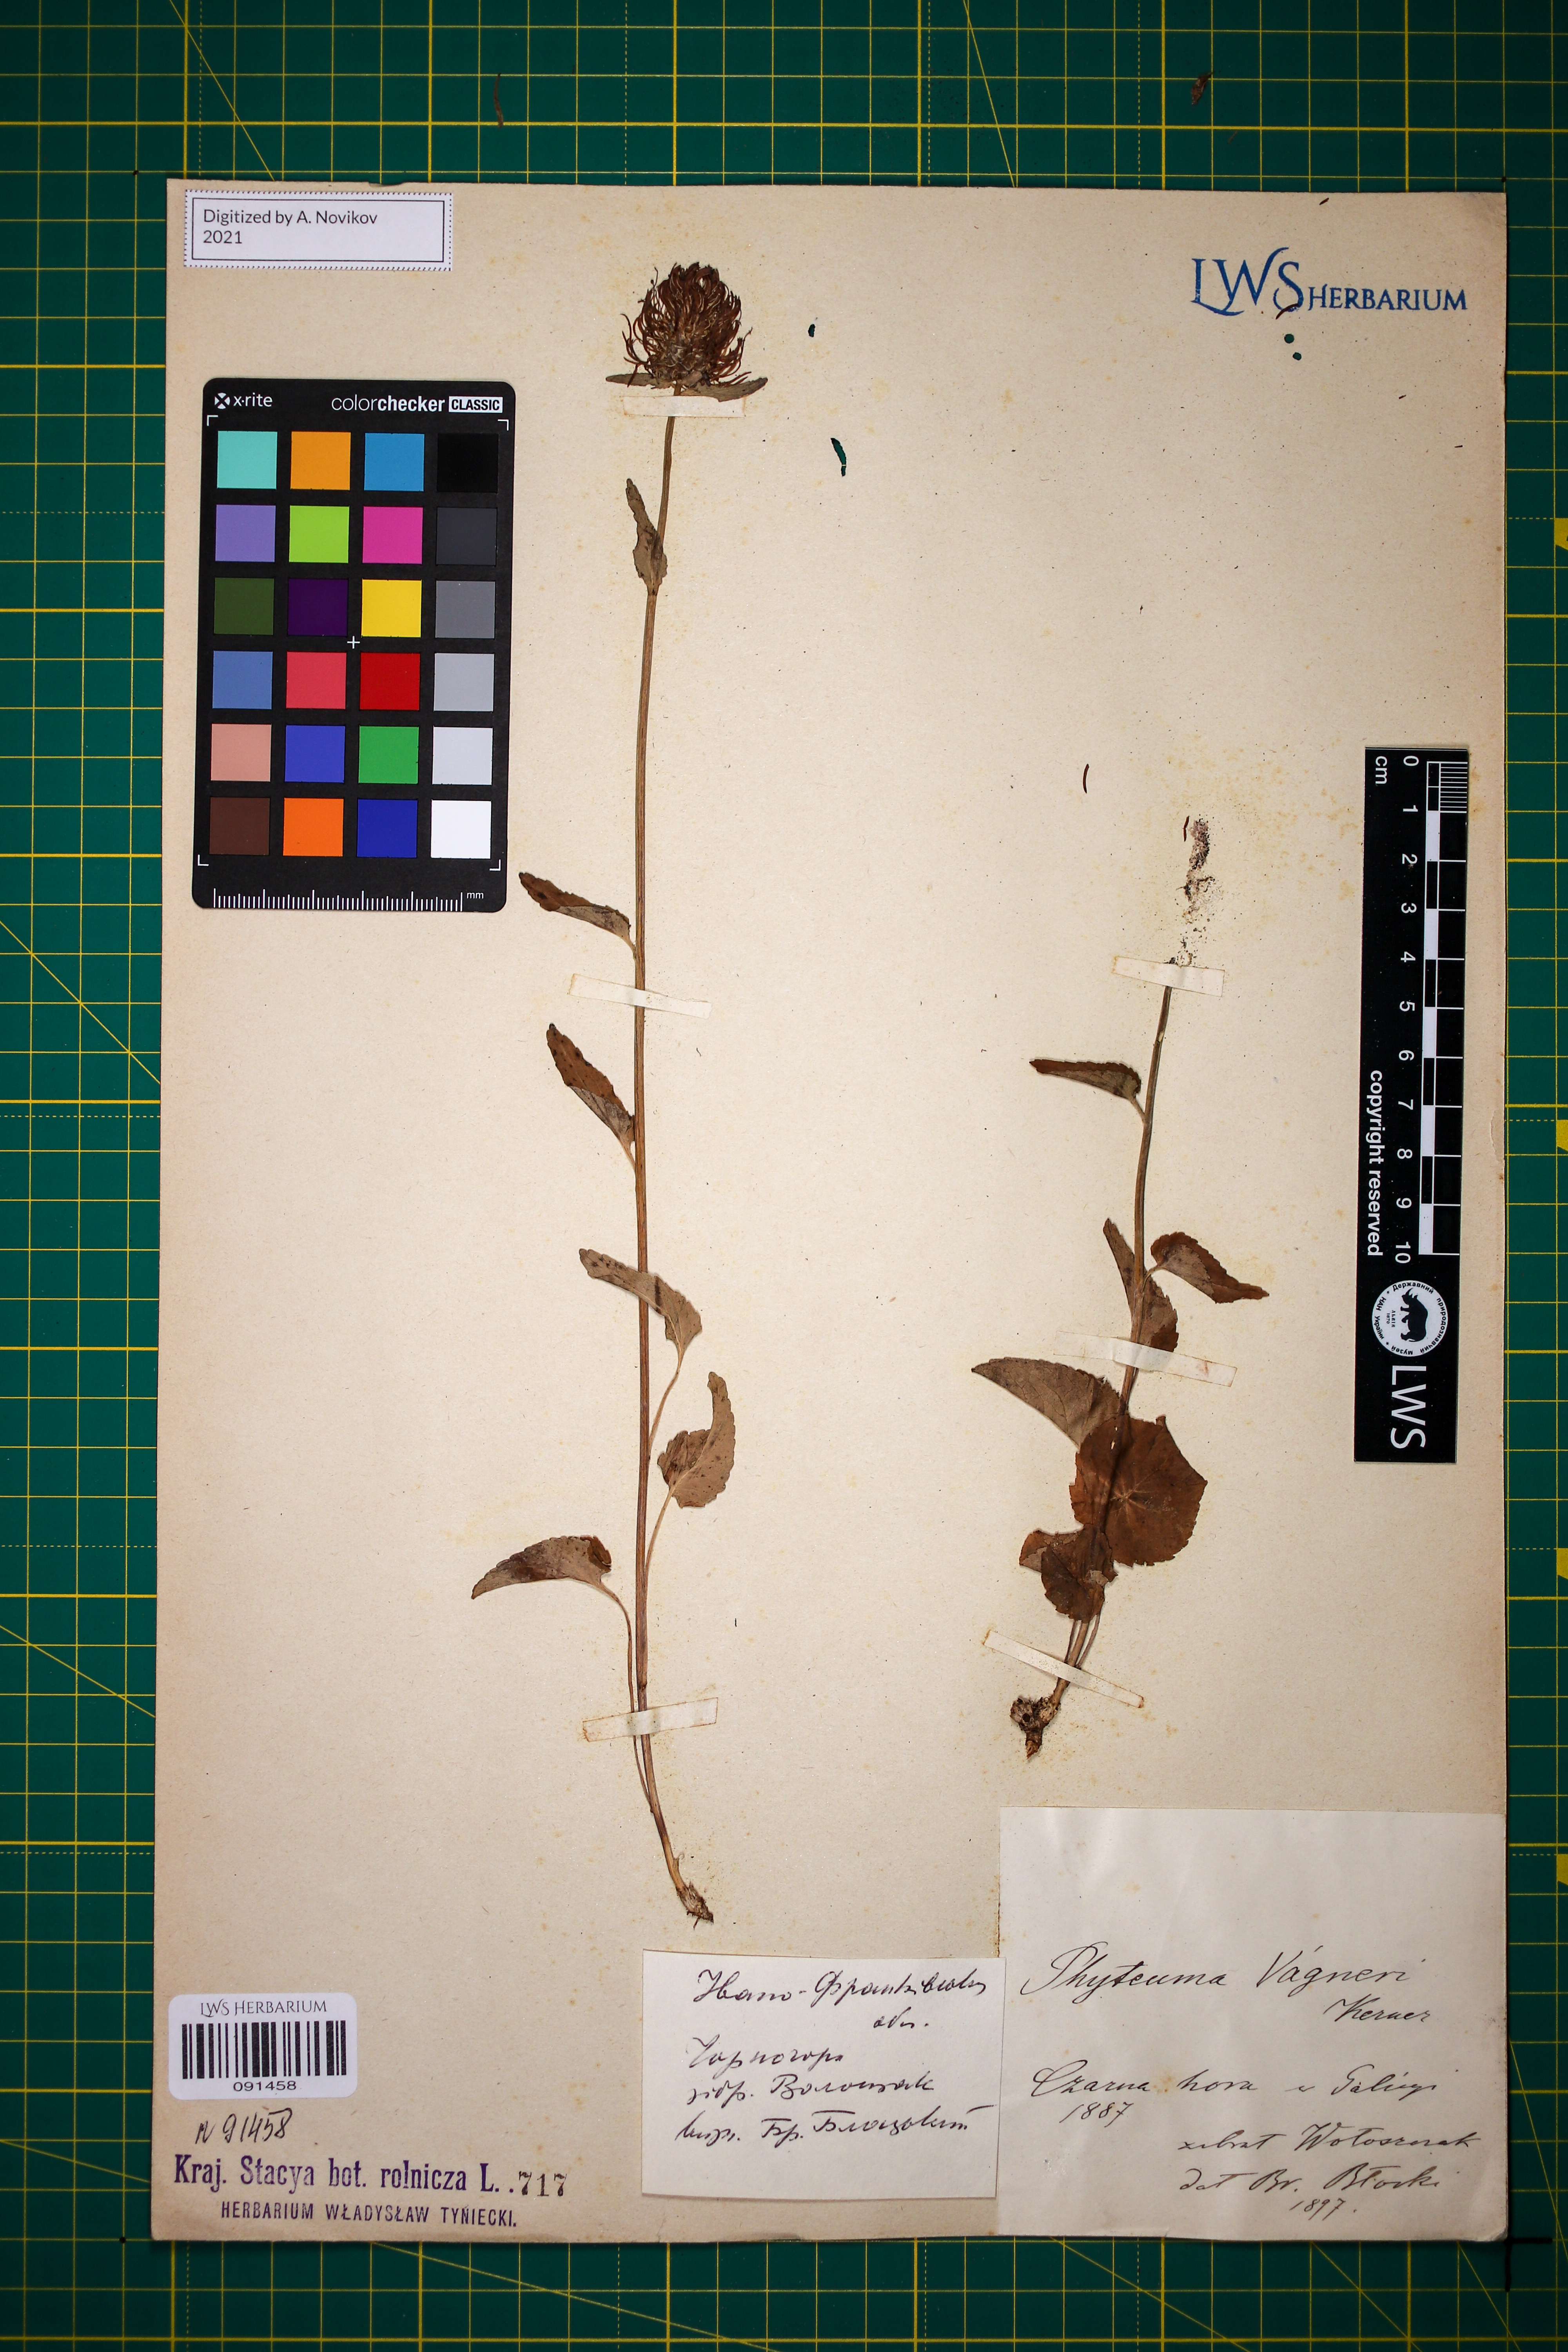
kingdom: Plantae
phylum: Tracheophyta
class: Magnoliopsida
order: Asterales
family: Campanulaceae
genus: Phyteuma
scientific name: Phyteuma vagneri
